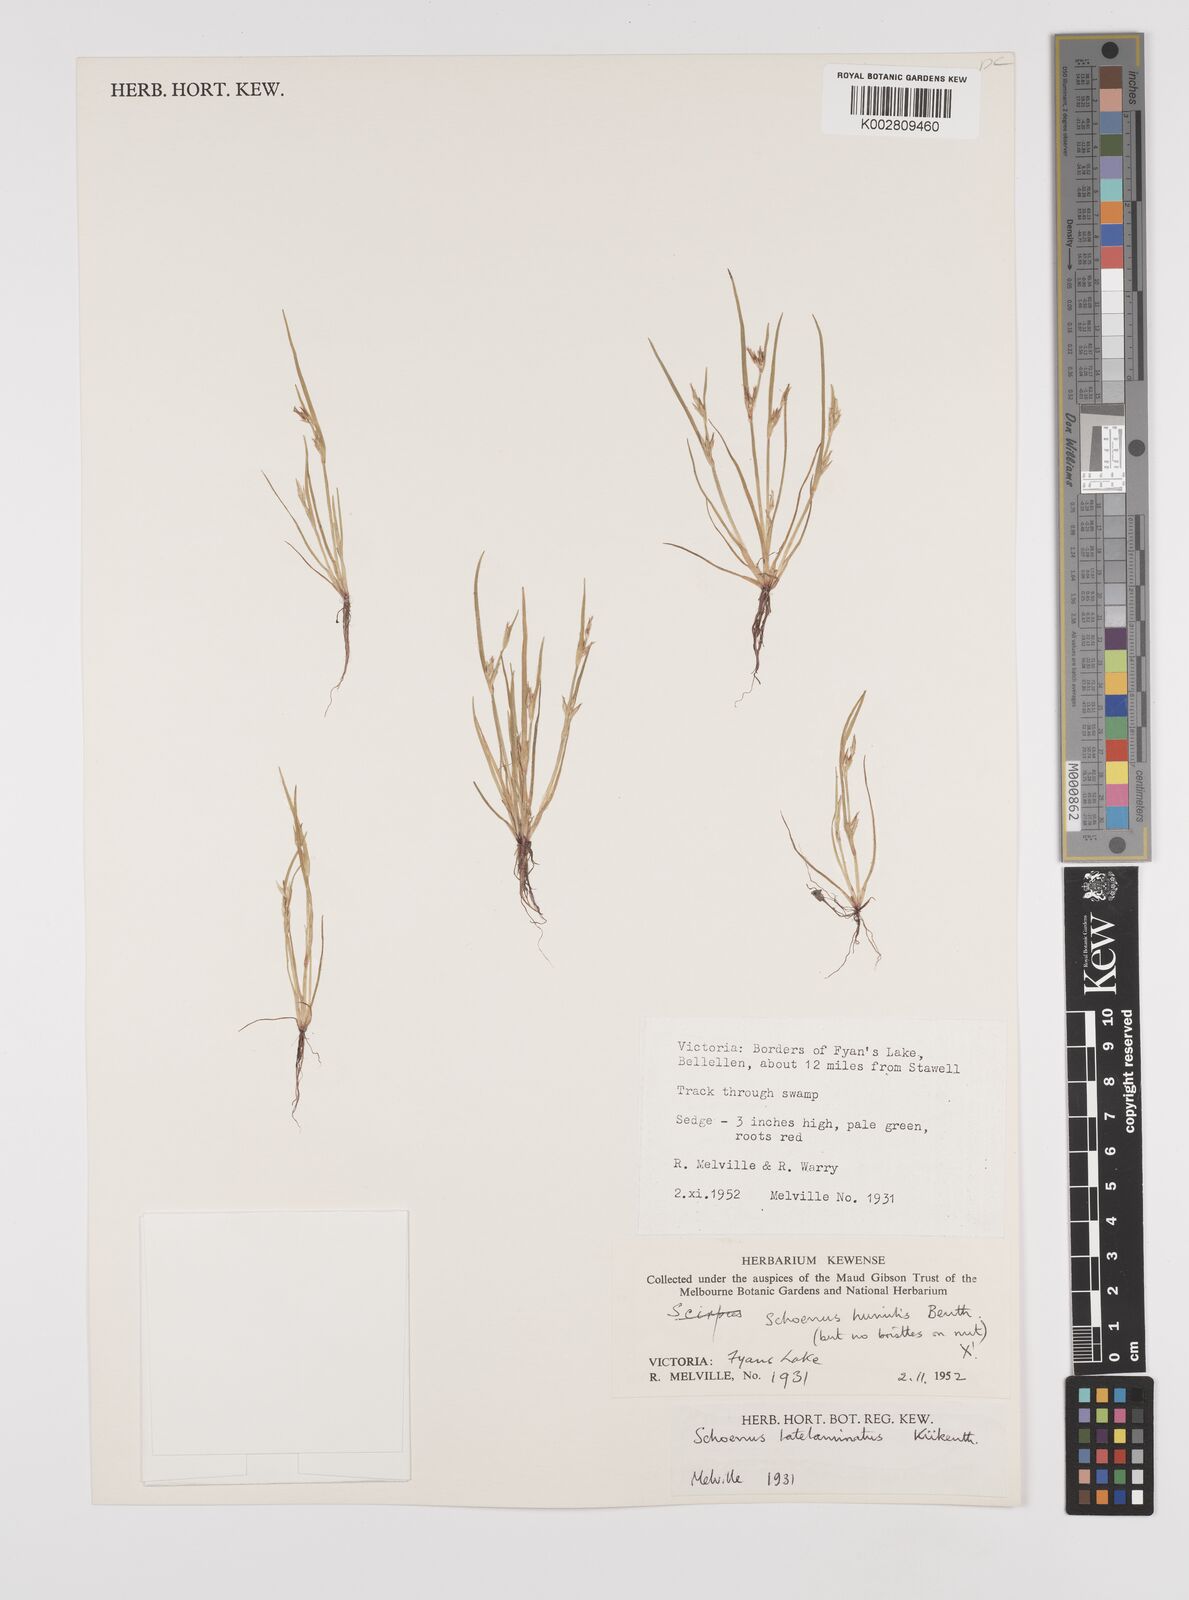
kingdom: Plantae
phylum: Tracheophyta
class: Liliopsida
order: Poales
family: Cyperaceae
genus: Schoenus
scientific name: Schoenus latelaminatus
